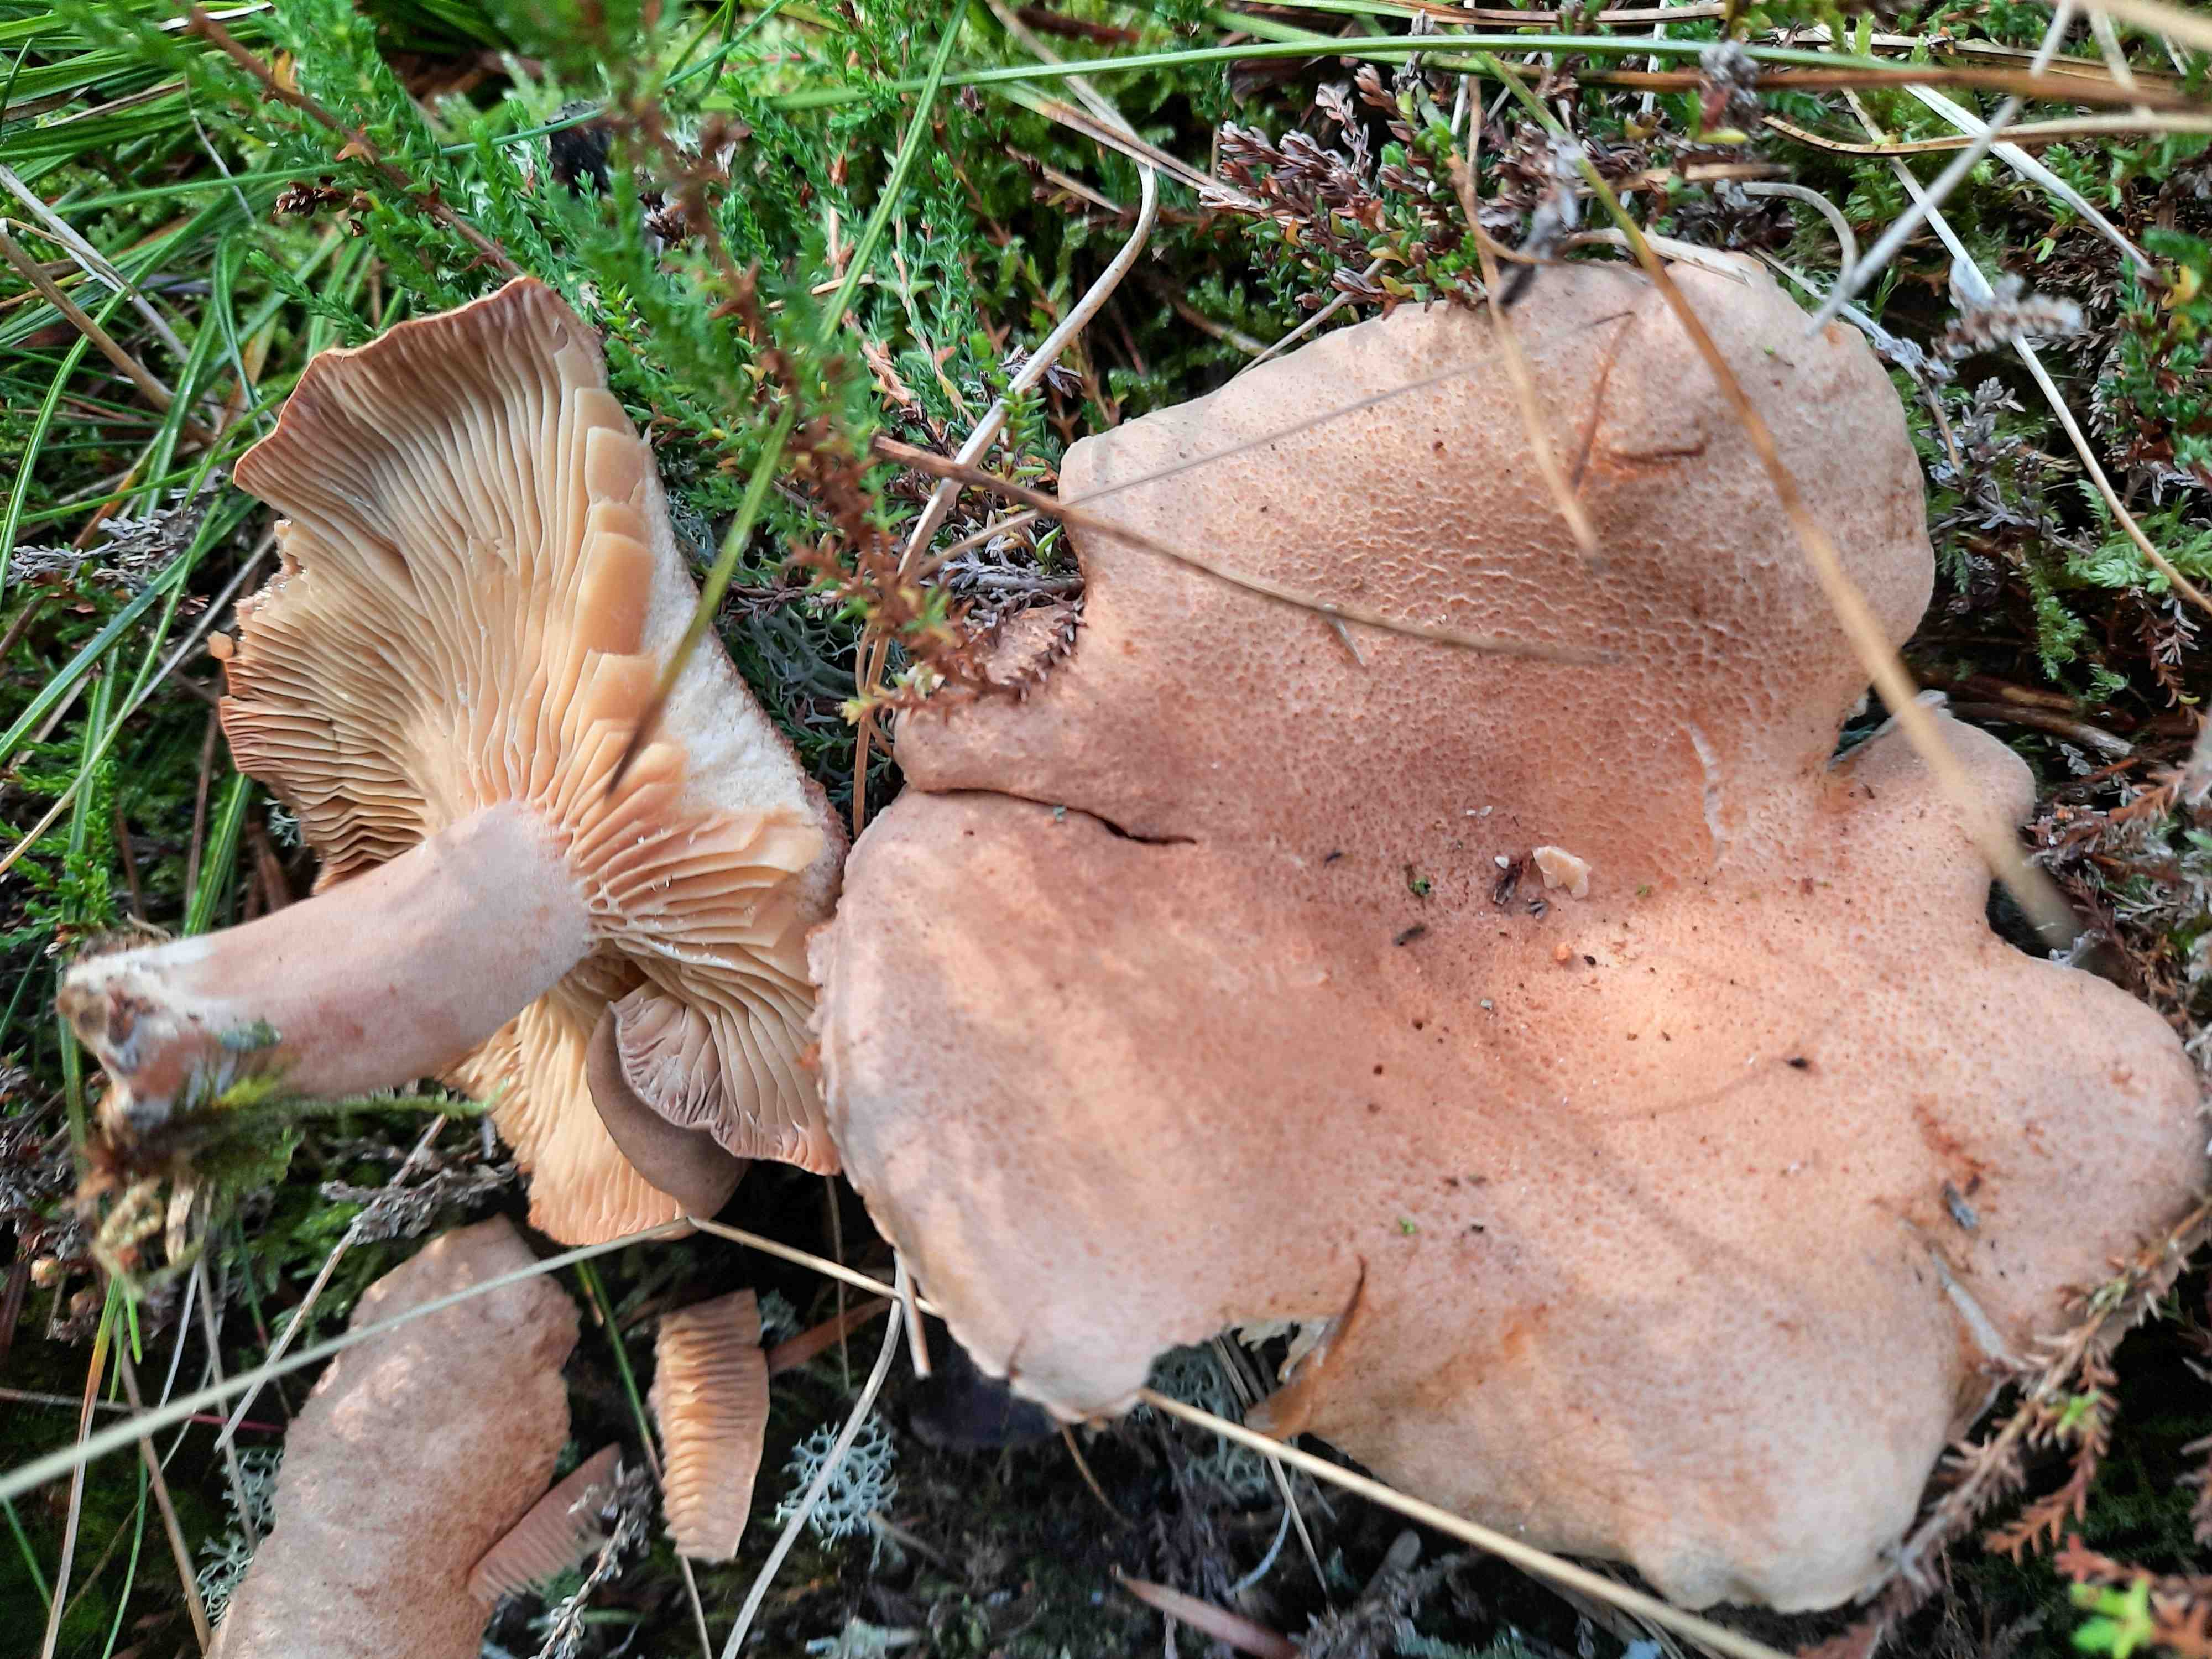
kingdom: Fungi
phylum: Basidiomycota
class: Agaricomycetes
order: Russulales
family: Russulaceae
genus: Lactarius
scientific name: Lactarius helvus
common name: mose-mælkehat
